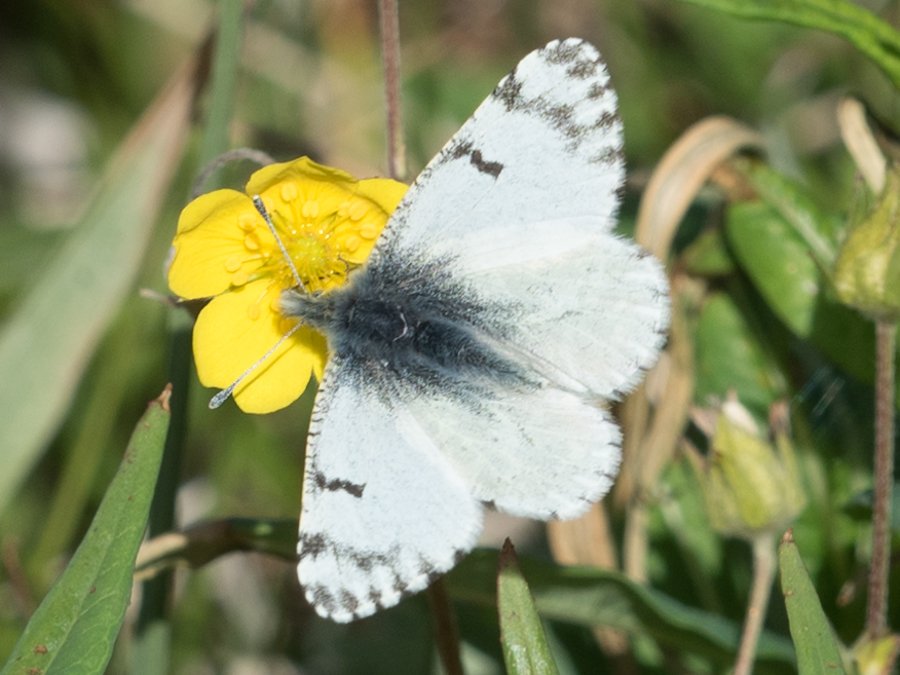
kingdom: Animalia
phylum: Arthropoda
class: Insecta
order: Lepidoptera
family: Pieridae
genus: Euchloe
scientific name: Euchloe creusa
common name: Northern Marble
